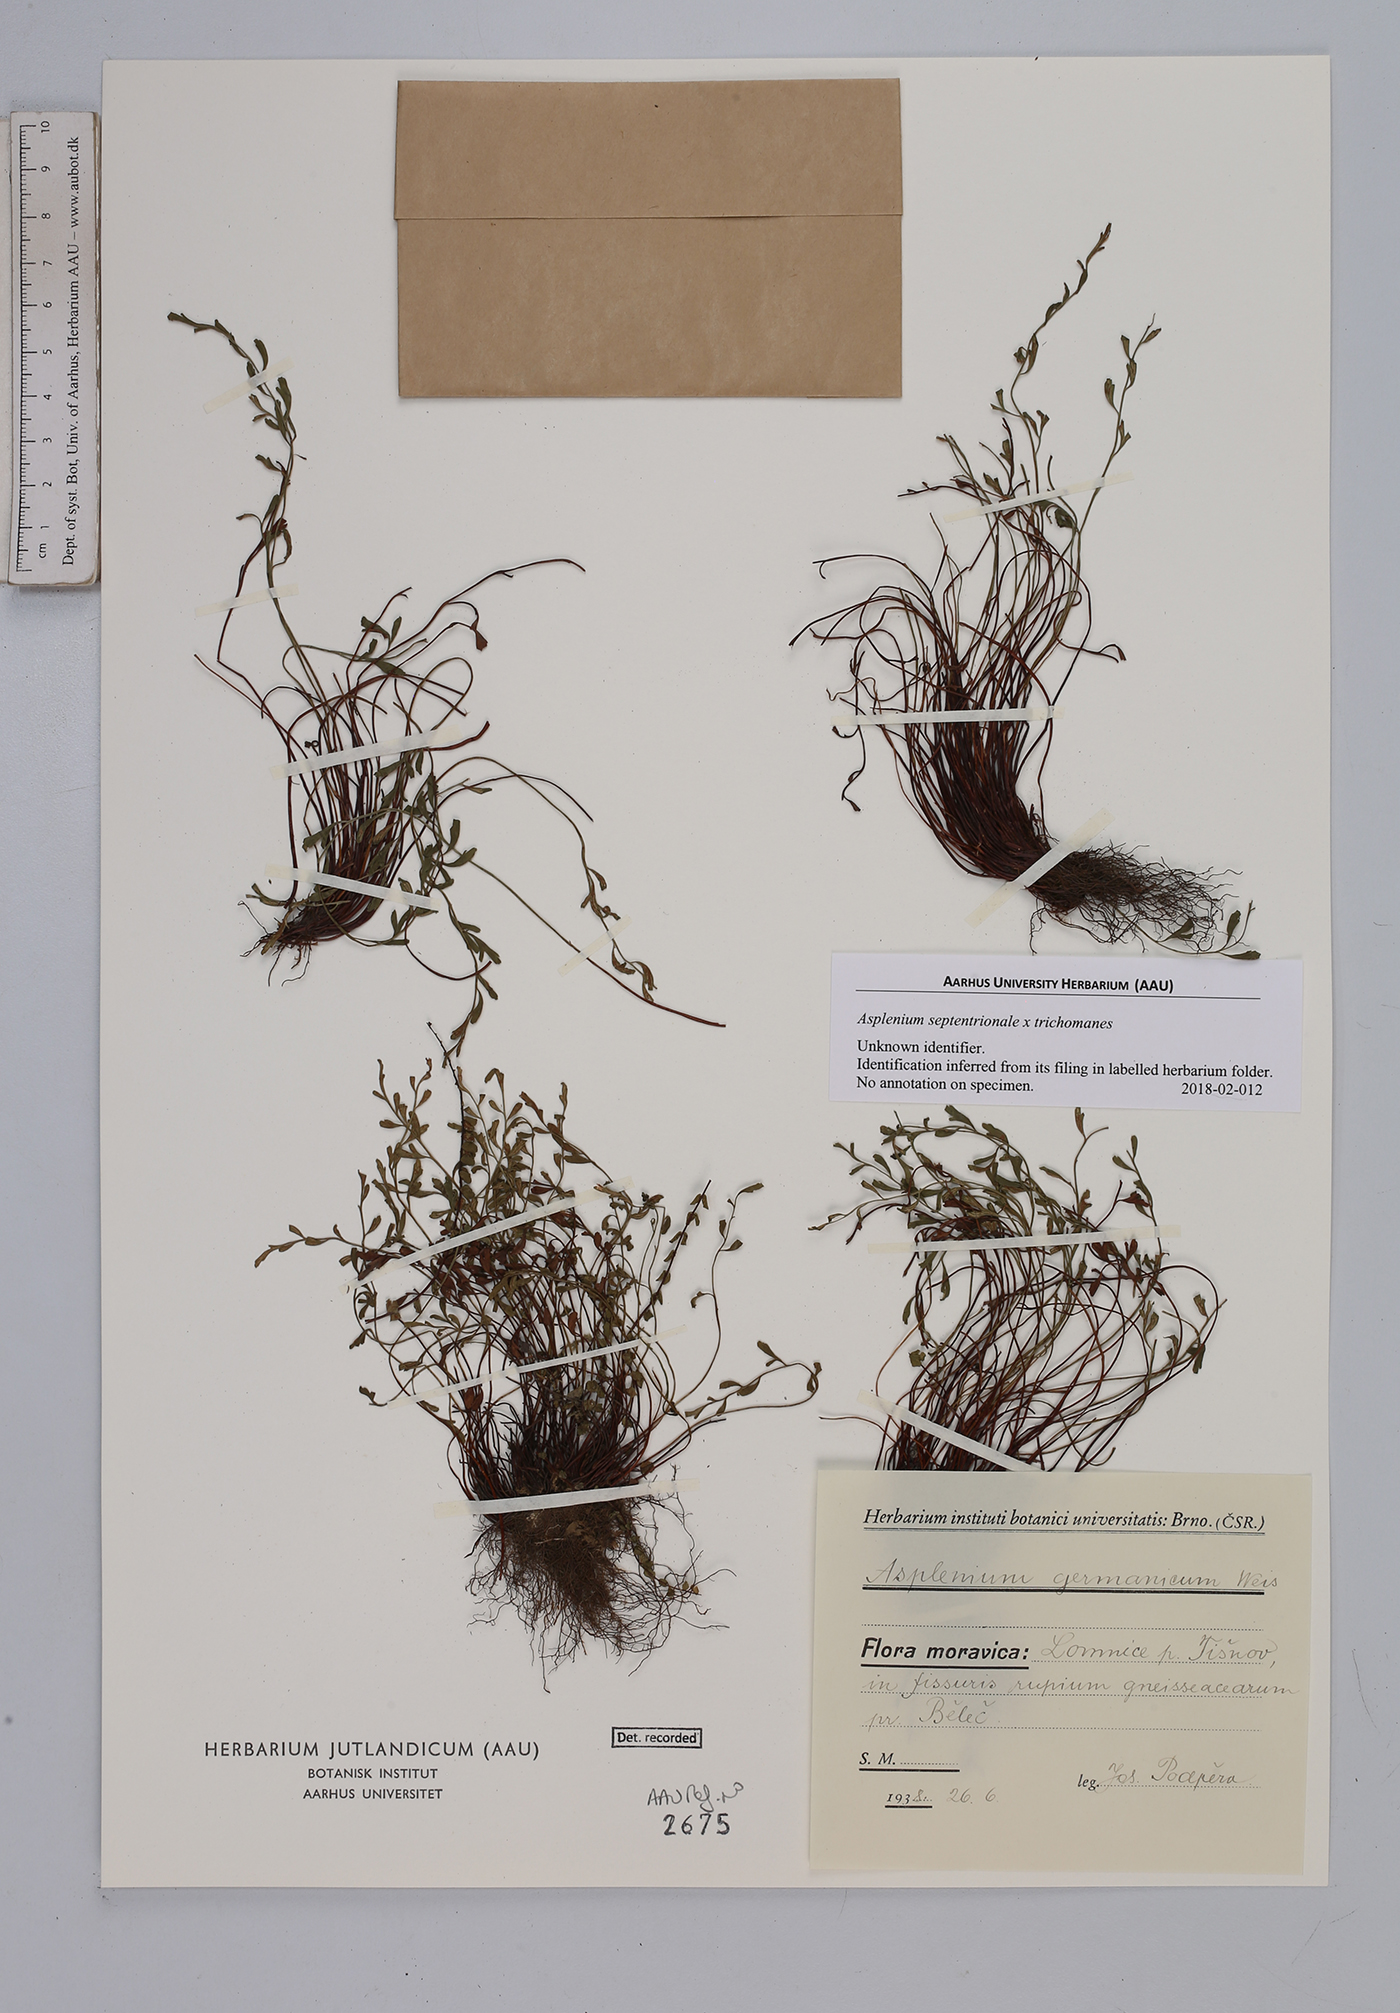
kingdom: Plantae
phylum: Tracheophyta
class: Polypodiopsida
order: Polypodiales
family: Aspleniaceae
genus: Asplenium
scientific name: Asplenium
